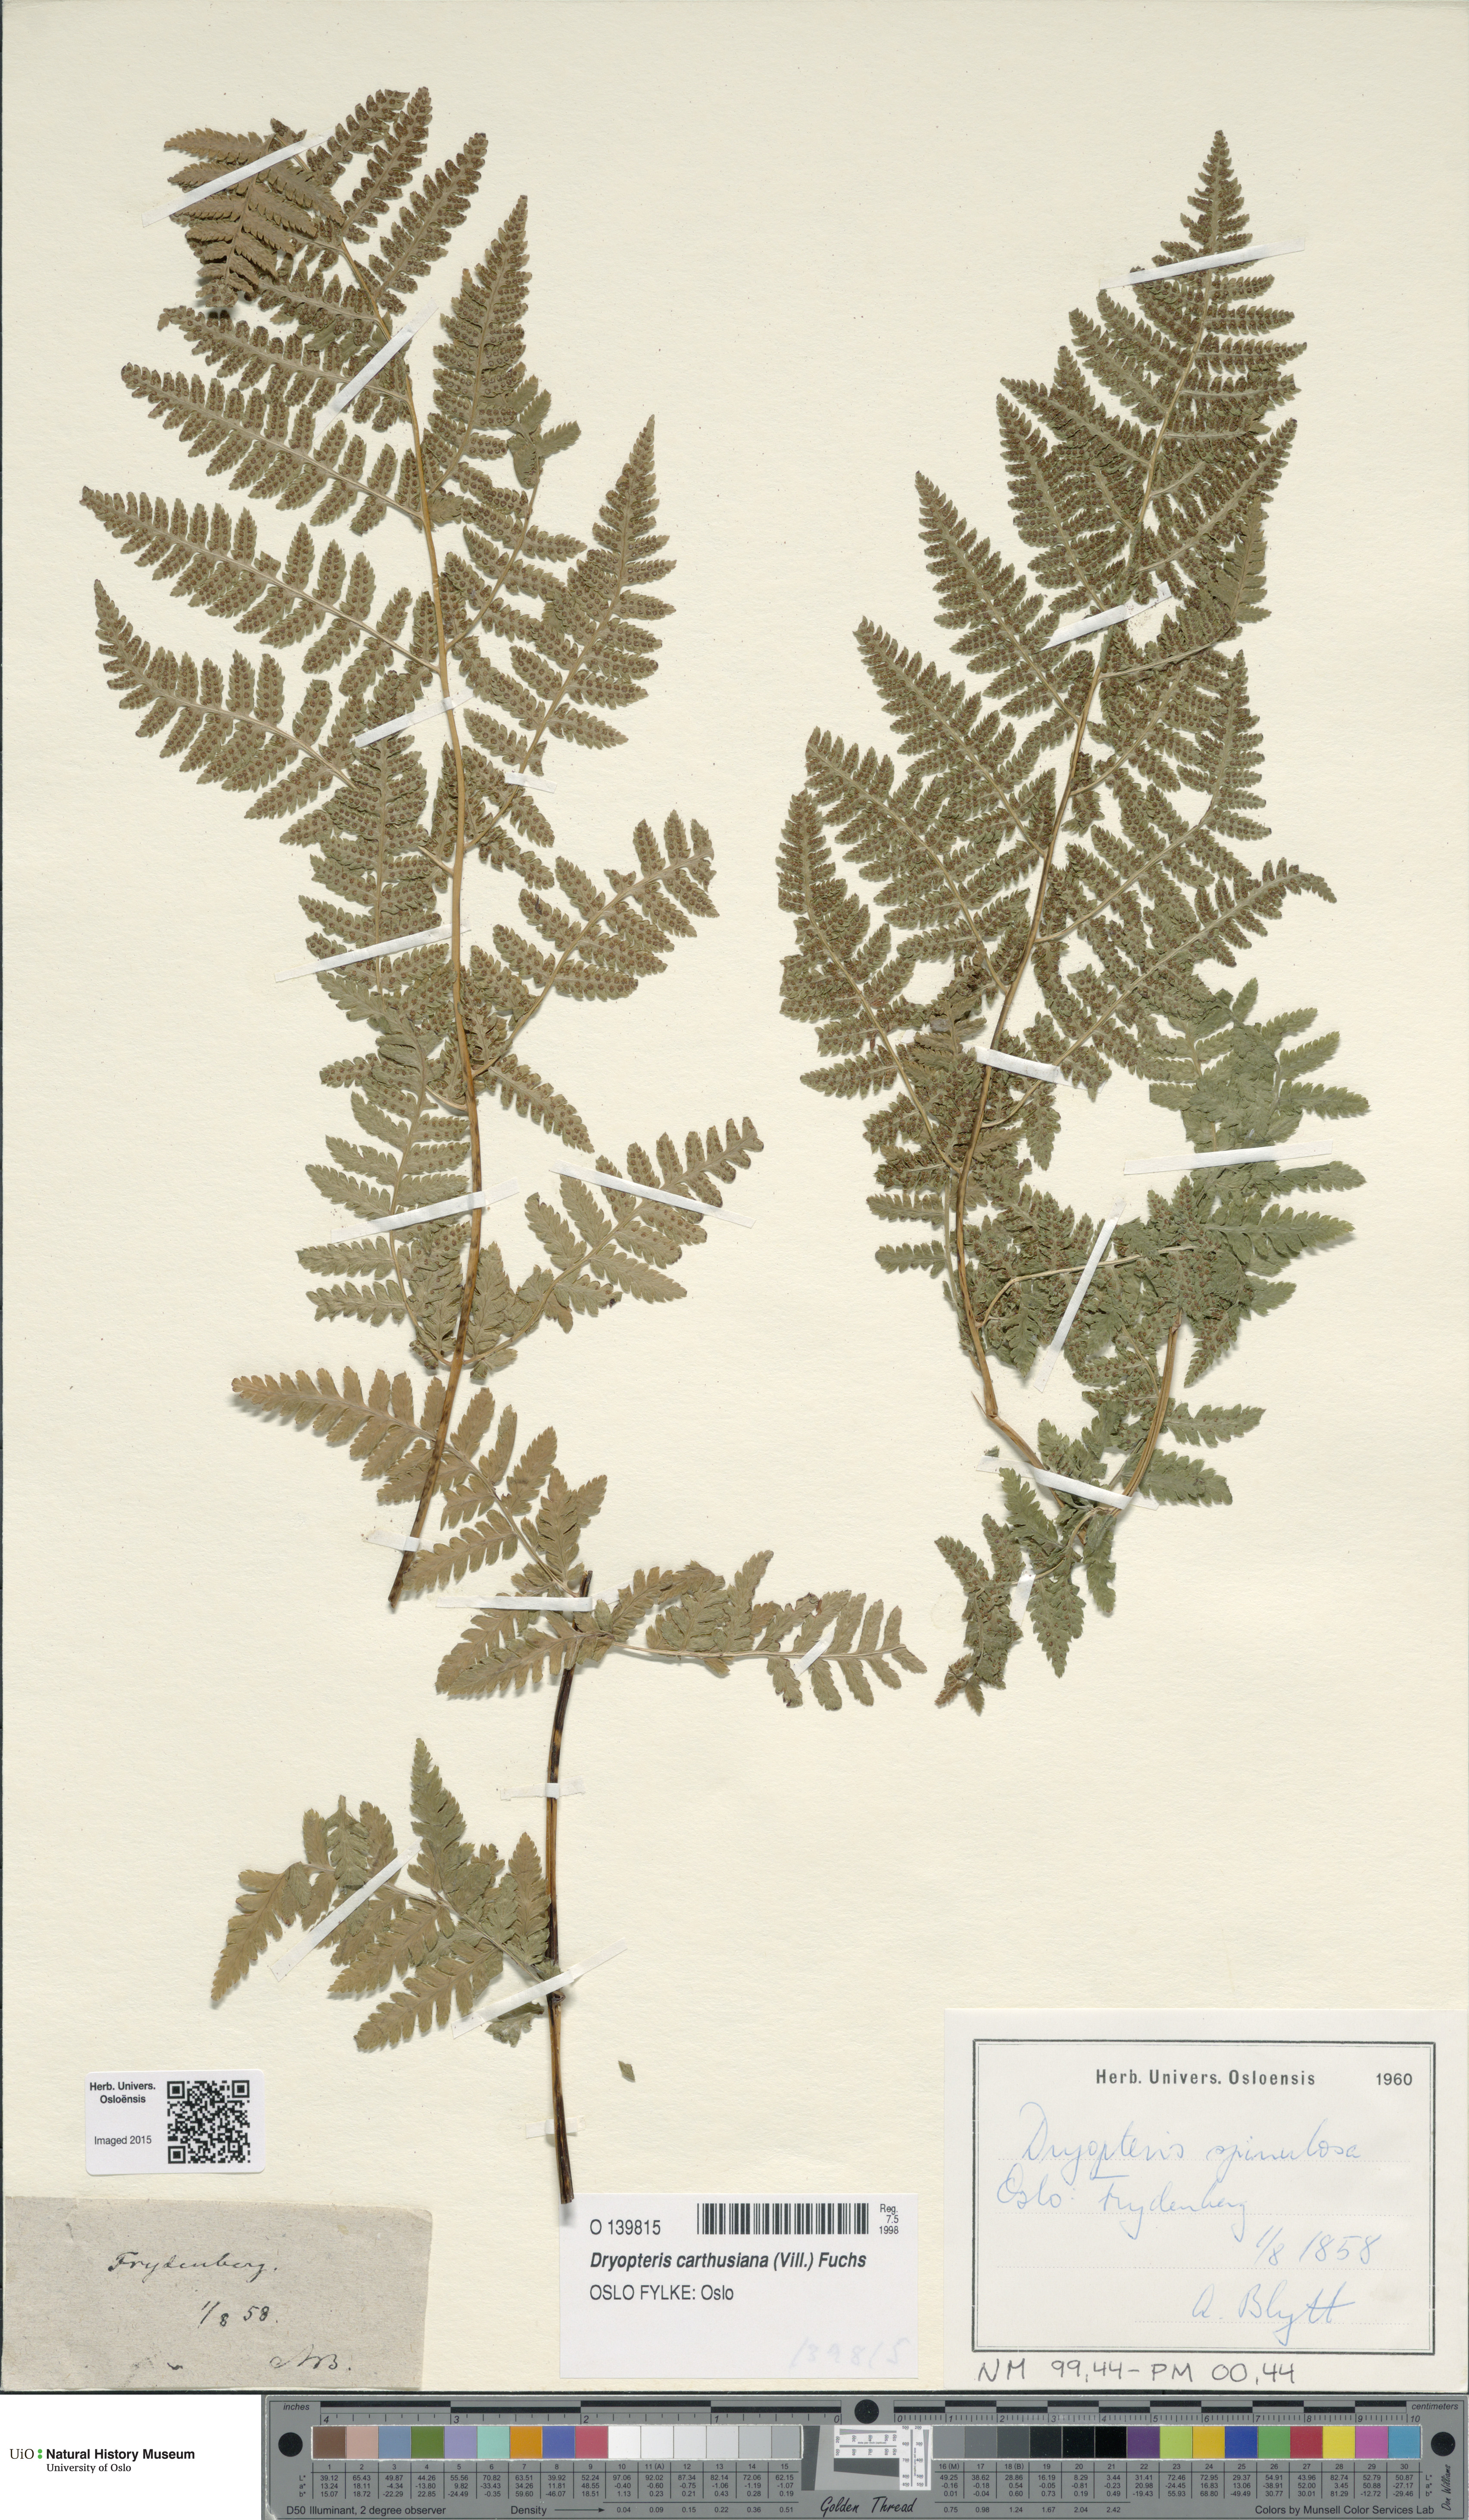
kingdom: Plantae
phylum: Tracheophyta
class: Polypodiopsida
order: Polypodiales
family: Dryopteridaceae
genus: Dryopteris
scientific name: Dryopteris carthusiana
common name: Narrow buckler-fern
